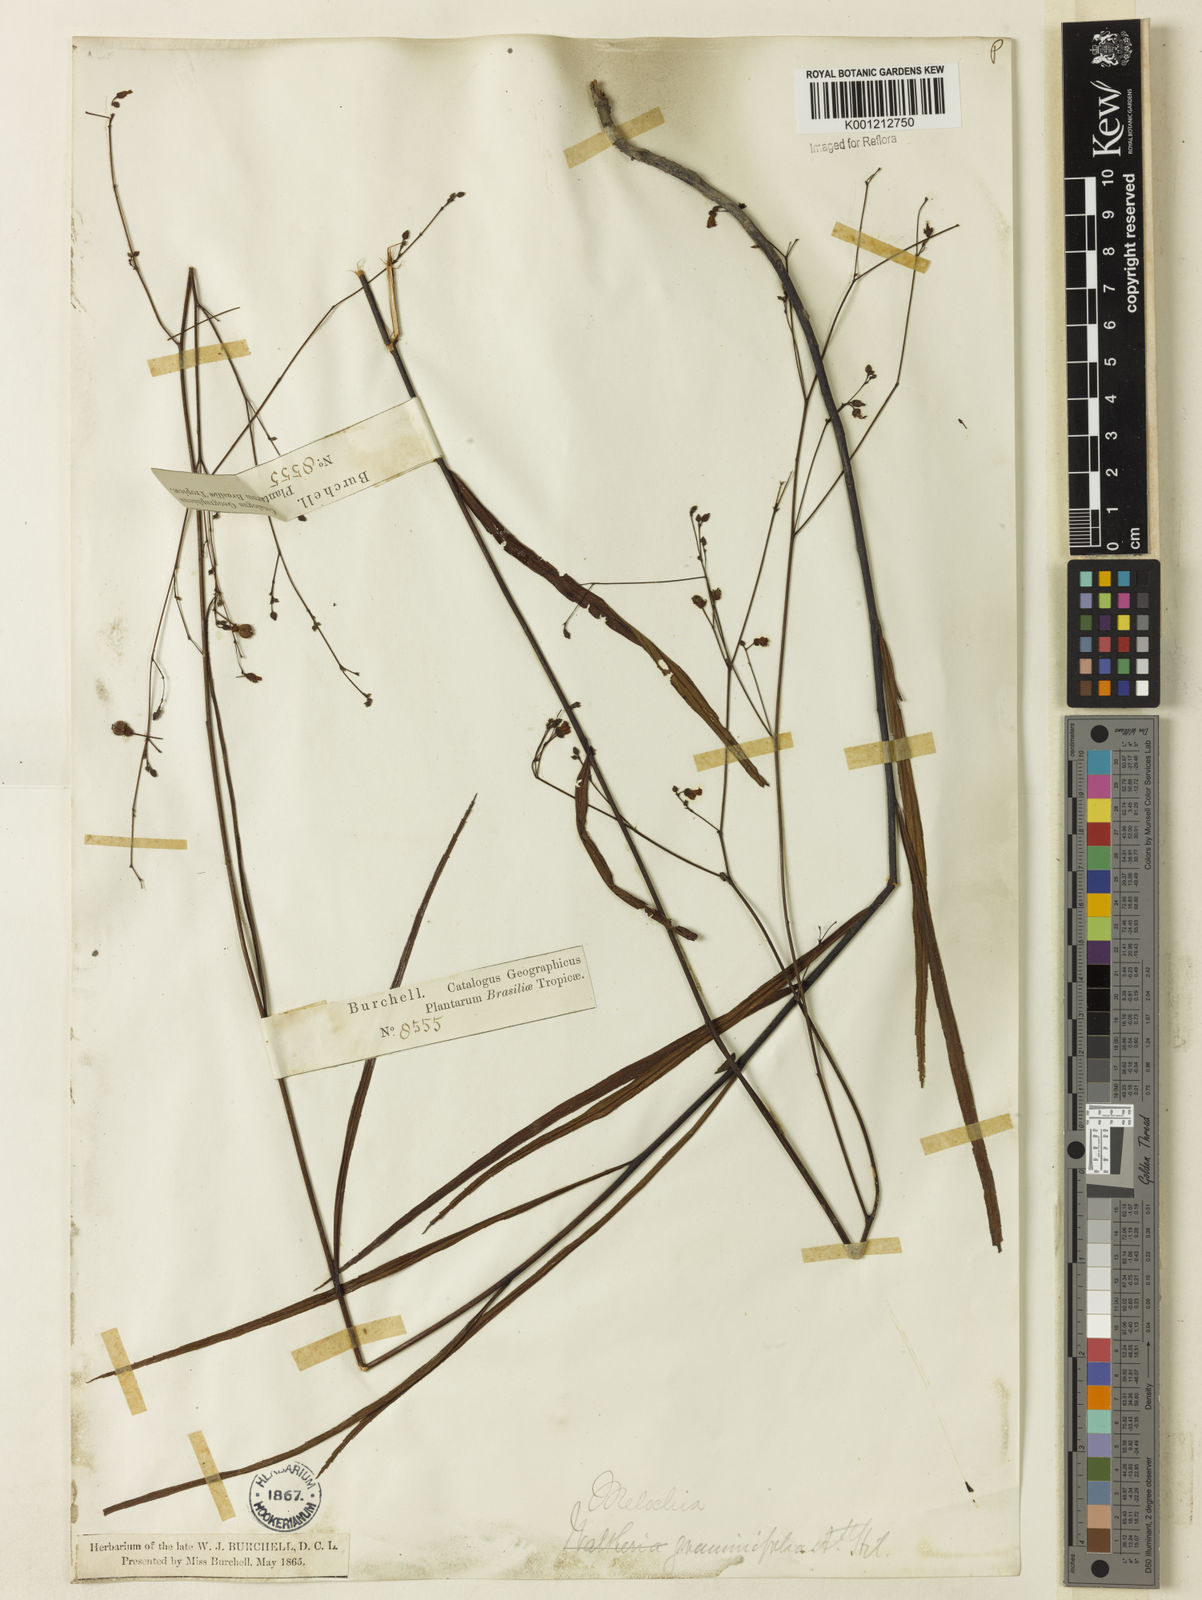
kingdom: Plantae
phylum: Tracheophyta
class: Magnoliopsida
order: Malvales
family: Malvaceae
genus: Melochia
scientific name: Melochia graminifolia
